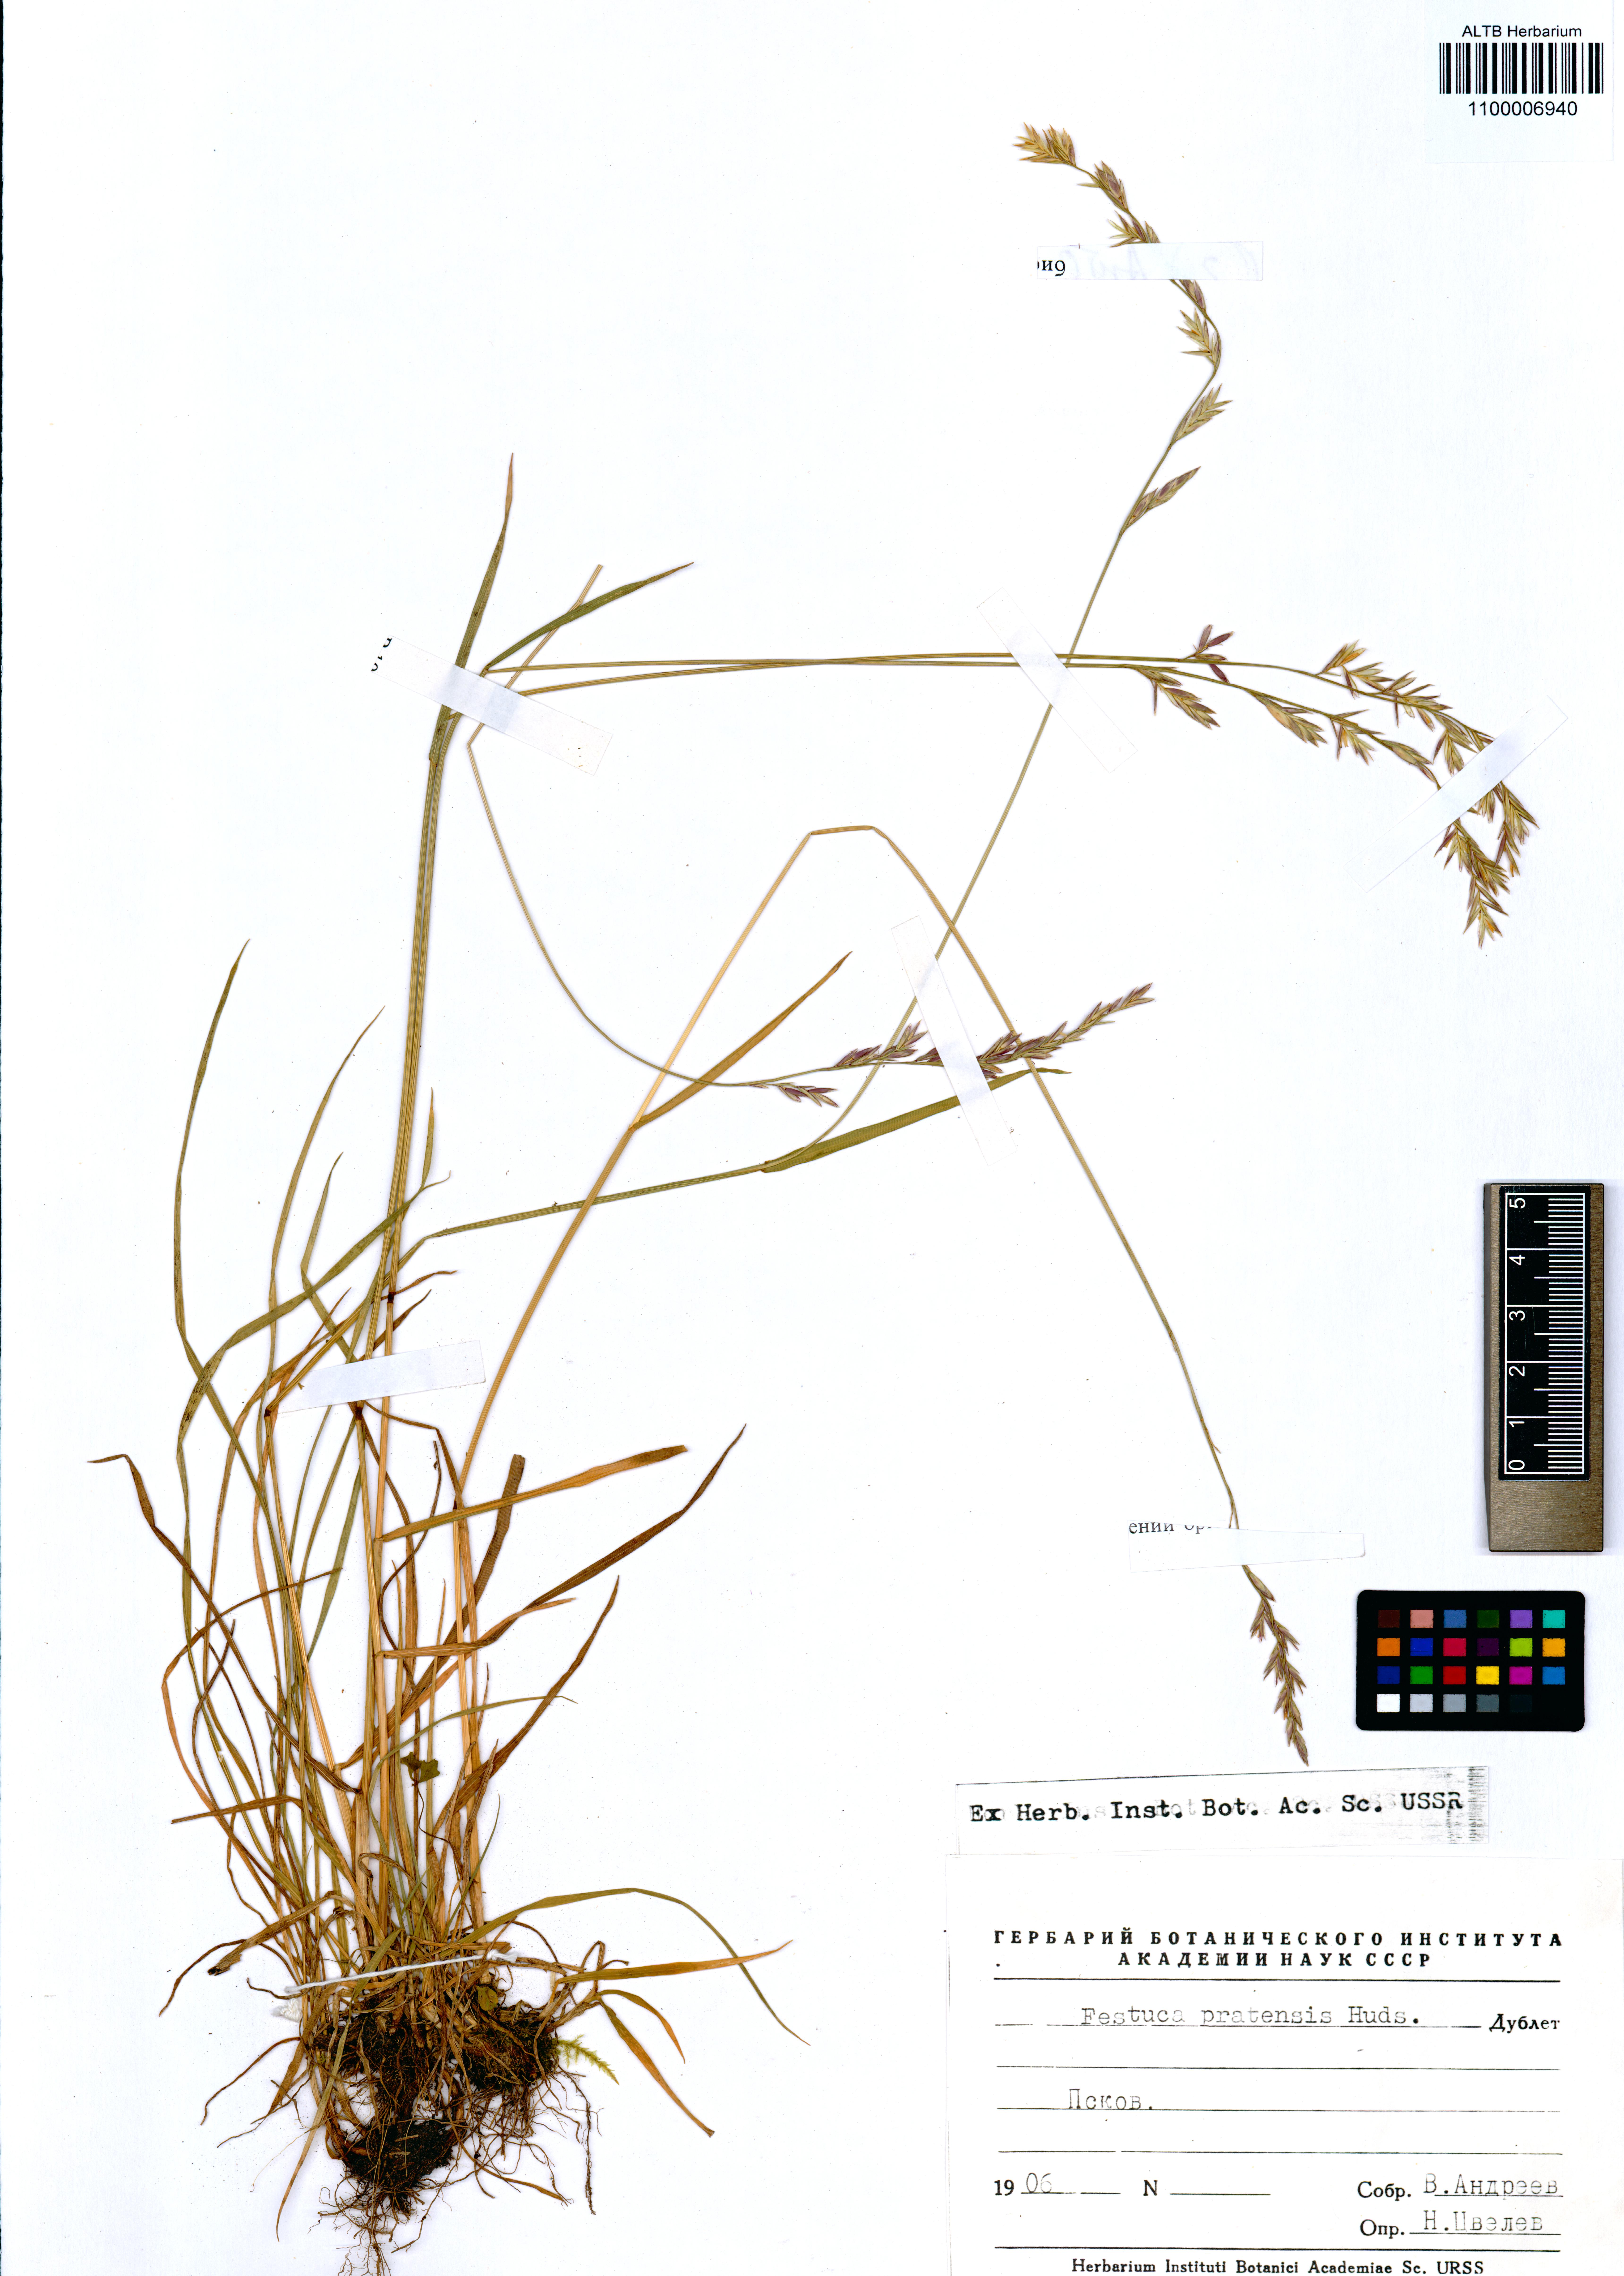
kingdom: Plantae
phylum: Tracheophyta
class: Liliopsida
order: Poales
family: Poaceae
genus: Lolium
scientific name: Lolium pratense
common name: Dover grass
